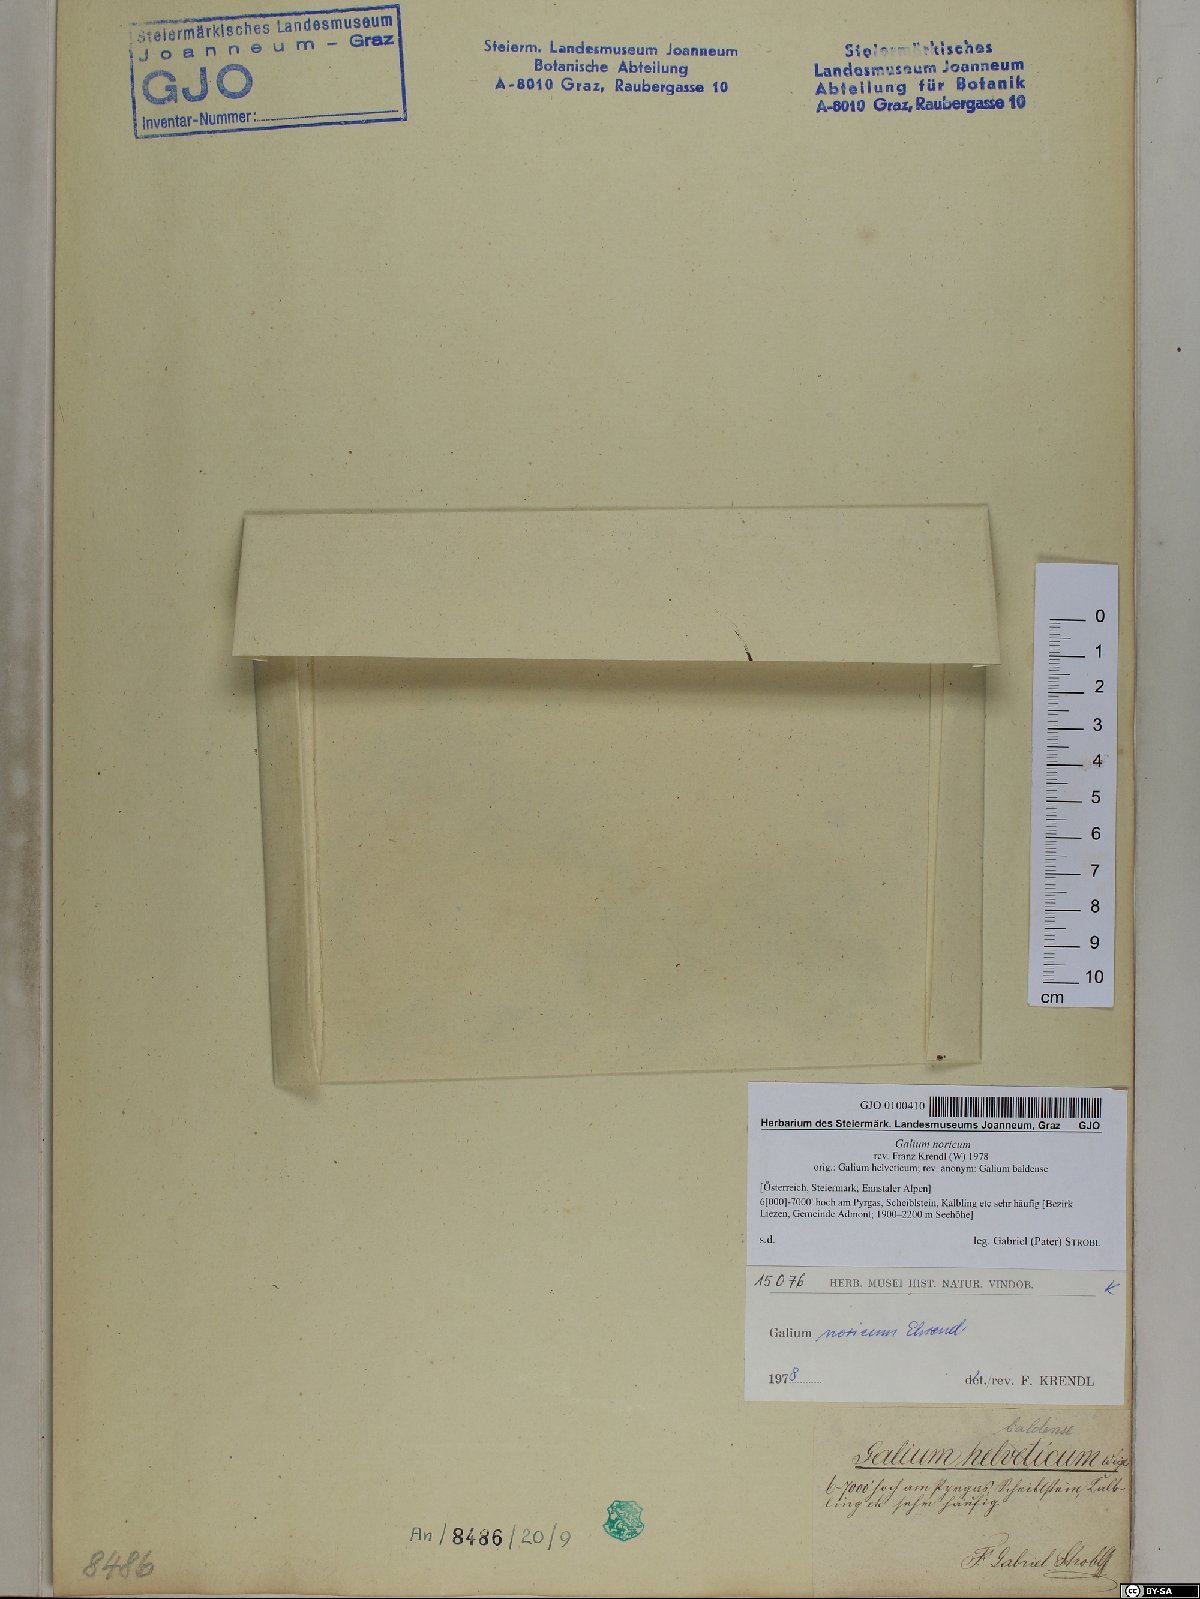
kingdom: Plantae
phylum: Tracheophyta
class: Magnoliopsida
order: Gentianales
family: Rubiaceae
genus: Galium
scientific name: Galium noricum
